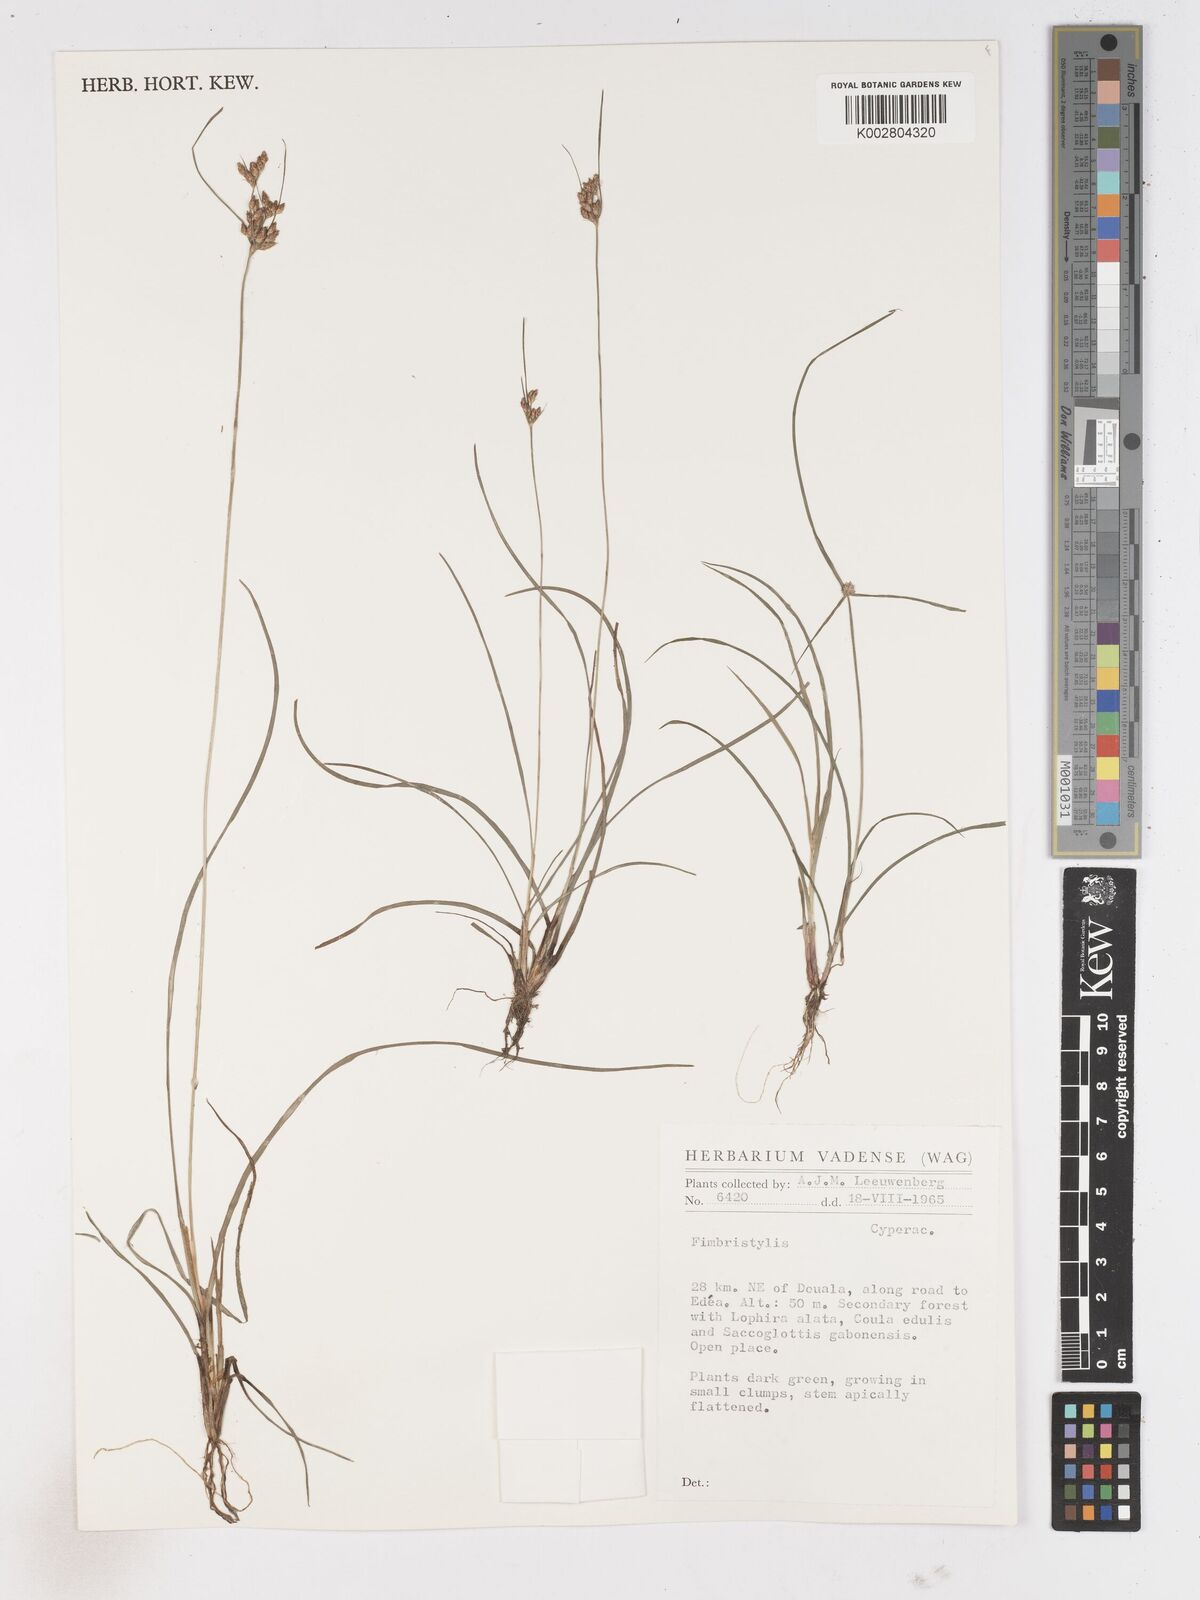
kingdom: Plantae
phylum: Tracheophyta
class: Liliopsida
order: Poales
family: Cyperaceae
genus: Fimbristylis
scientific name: Fimbristylis
